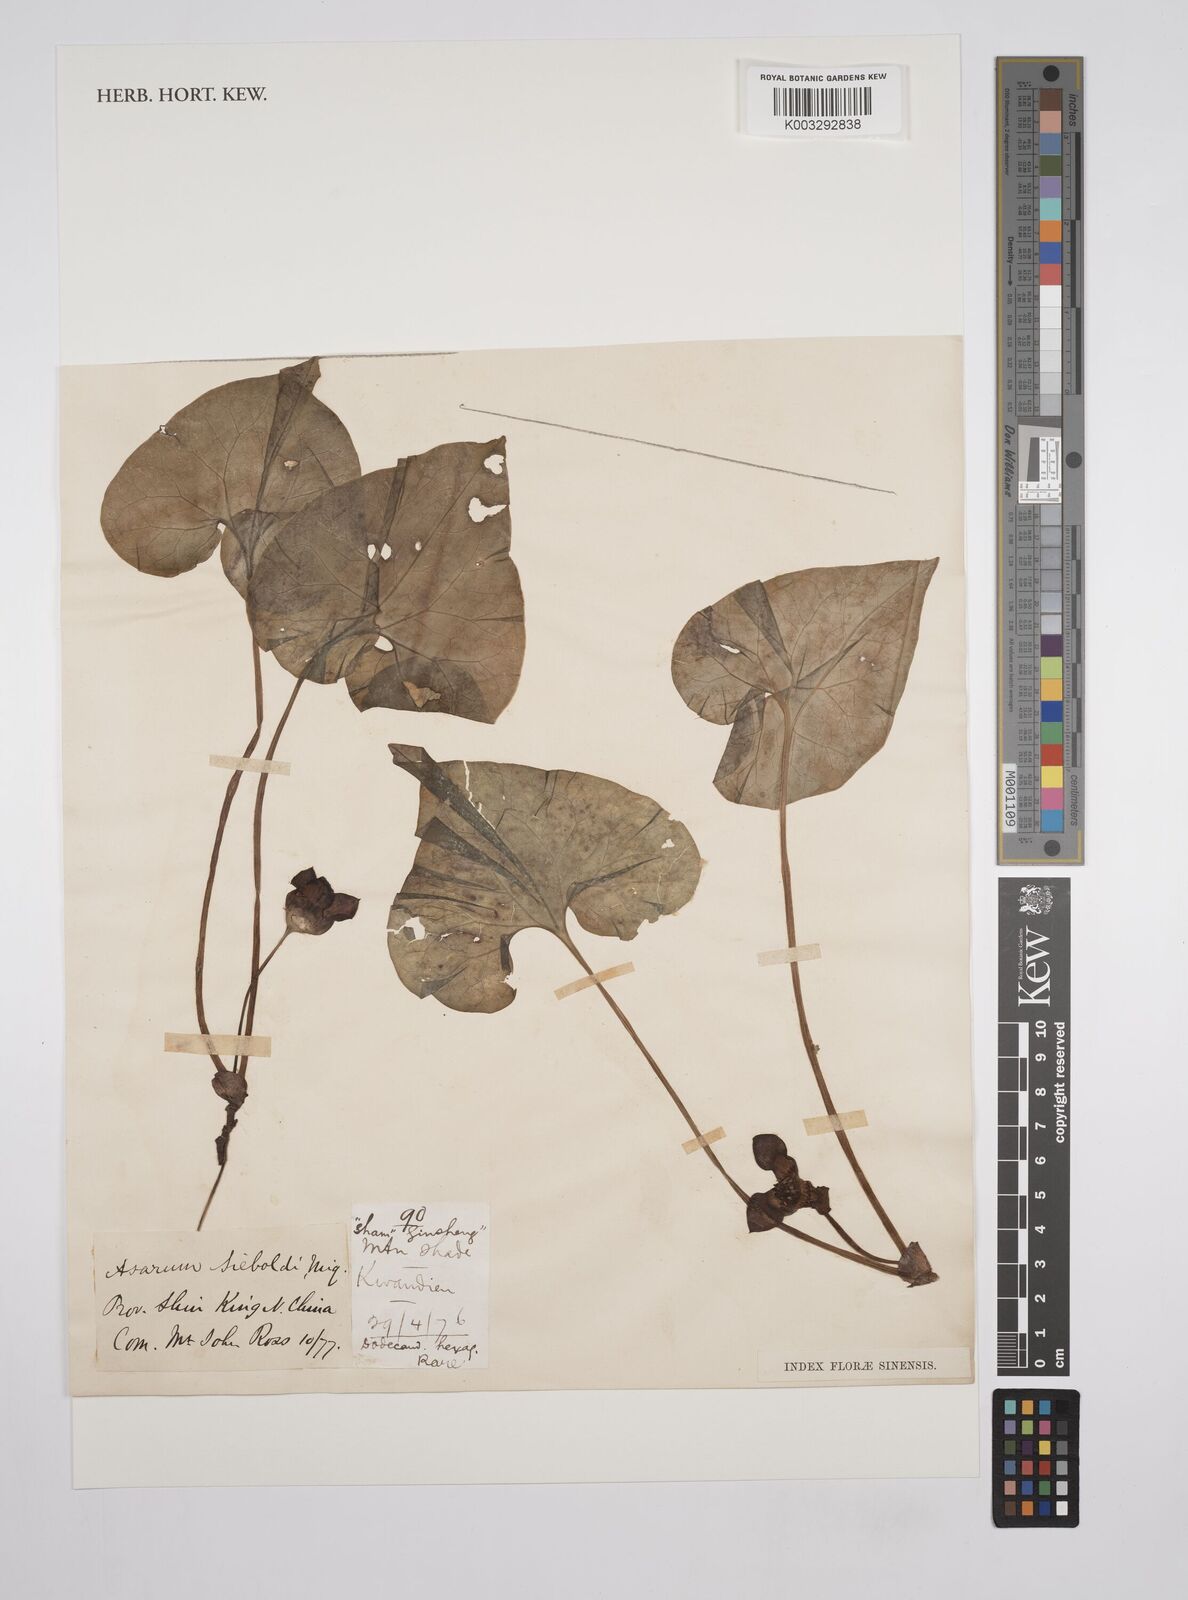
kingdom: Plantae
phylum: Tracheophyta
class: Magnoliopsida
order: Piperales
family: Aristolochiaceae
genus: Asarum
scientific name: Asarum sieboldii
